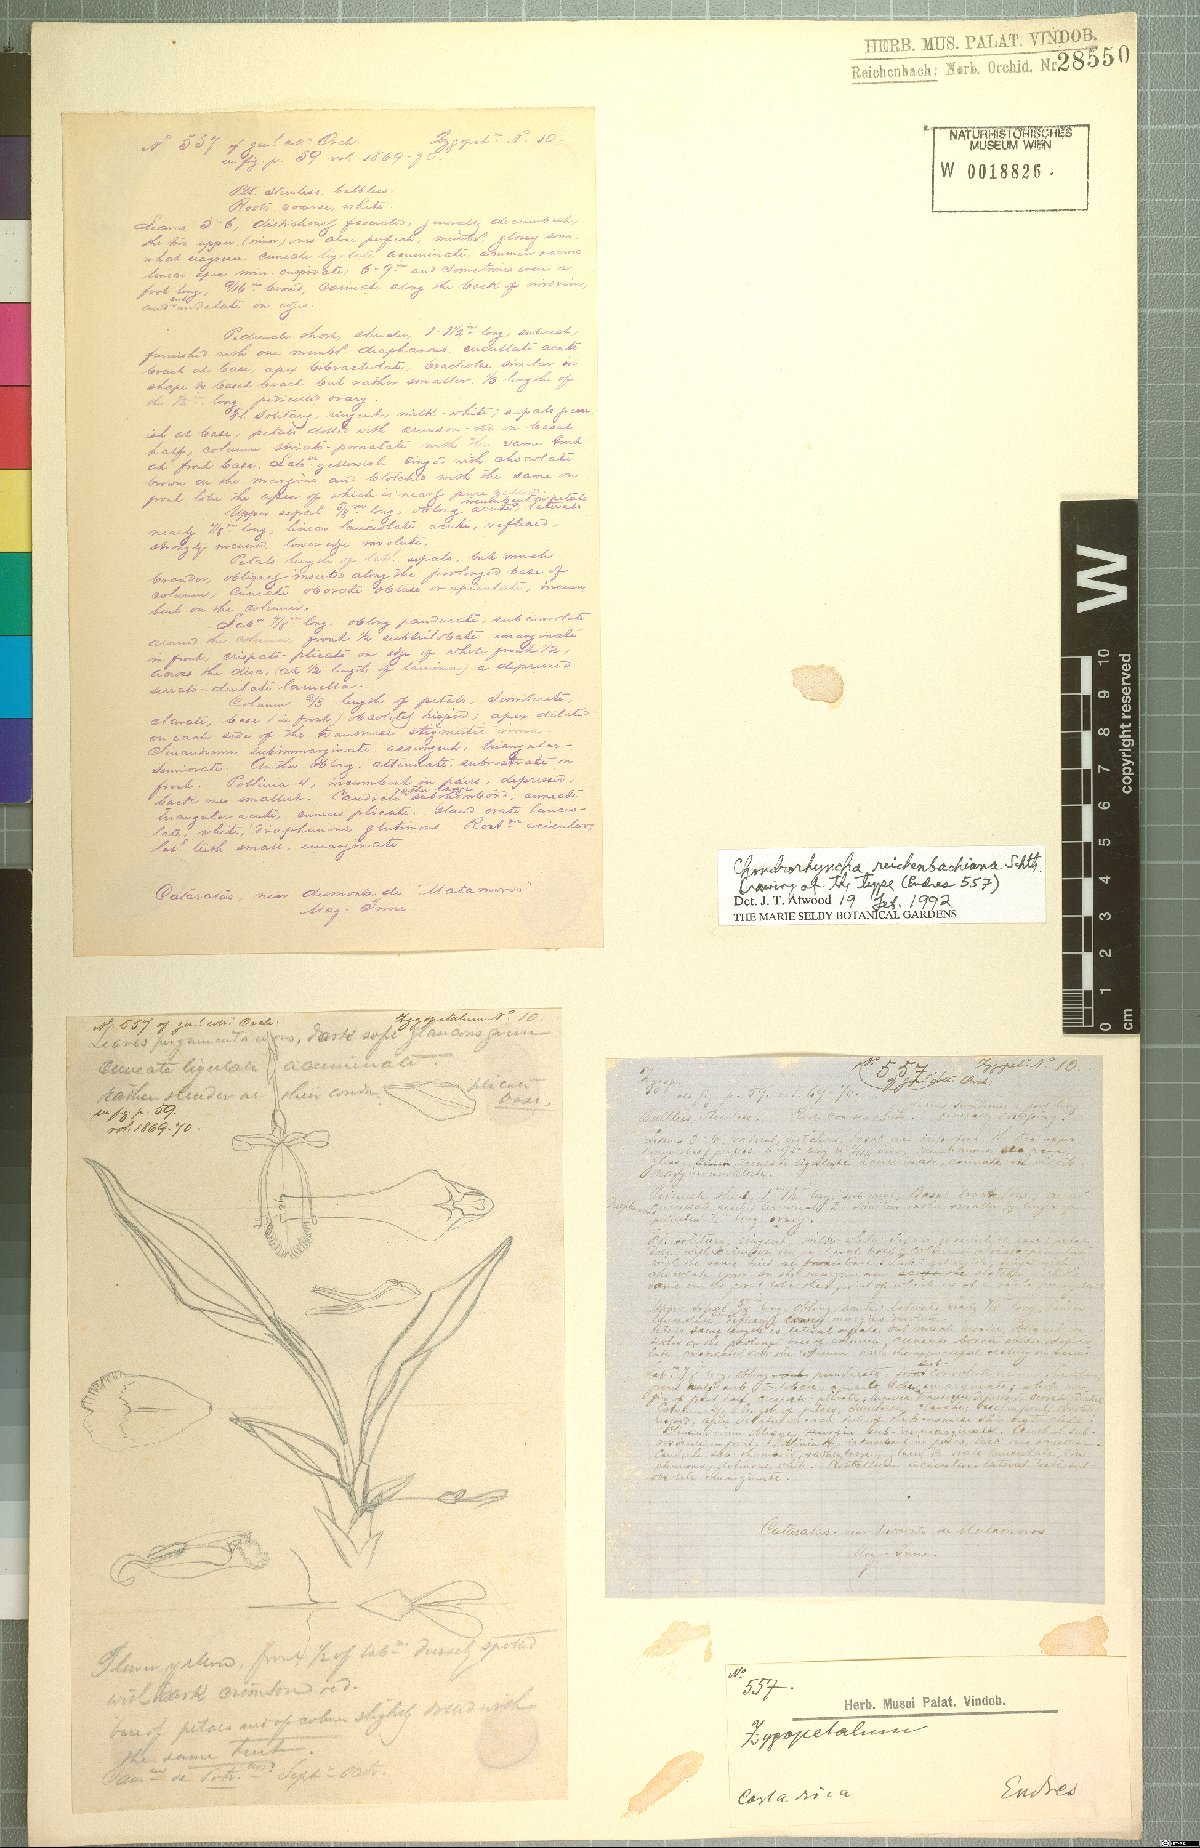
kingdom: Plantae
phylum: Tracheophyta
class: Liliopsida
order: Asparagales
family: Orchidaceae
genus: Benzingia
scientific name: Benzingia reichenbachiana
